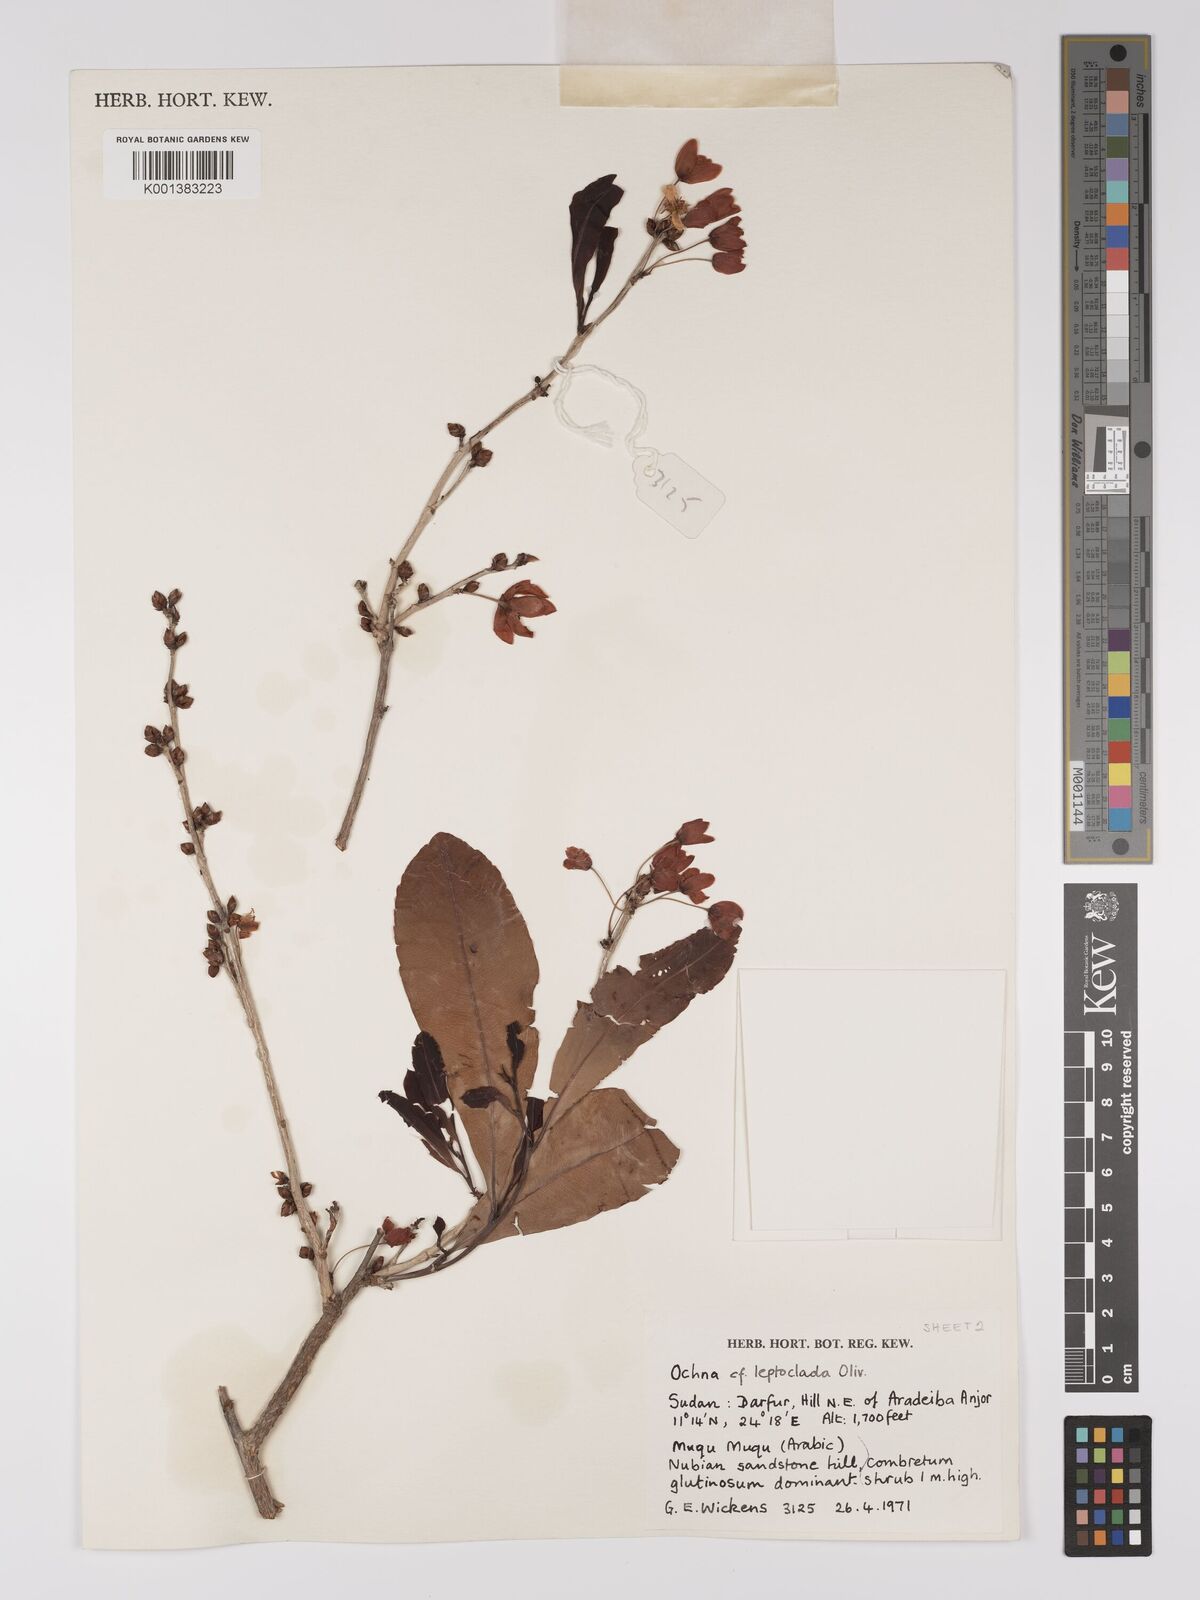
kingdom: Plantae
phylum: Tracheophyta
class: Magnoliopsida
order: Malpighiales
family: Ochnaceae
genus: Ochna
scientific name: Ochna schweinfurthiana
